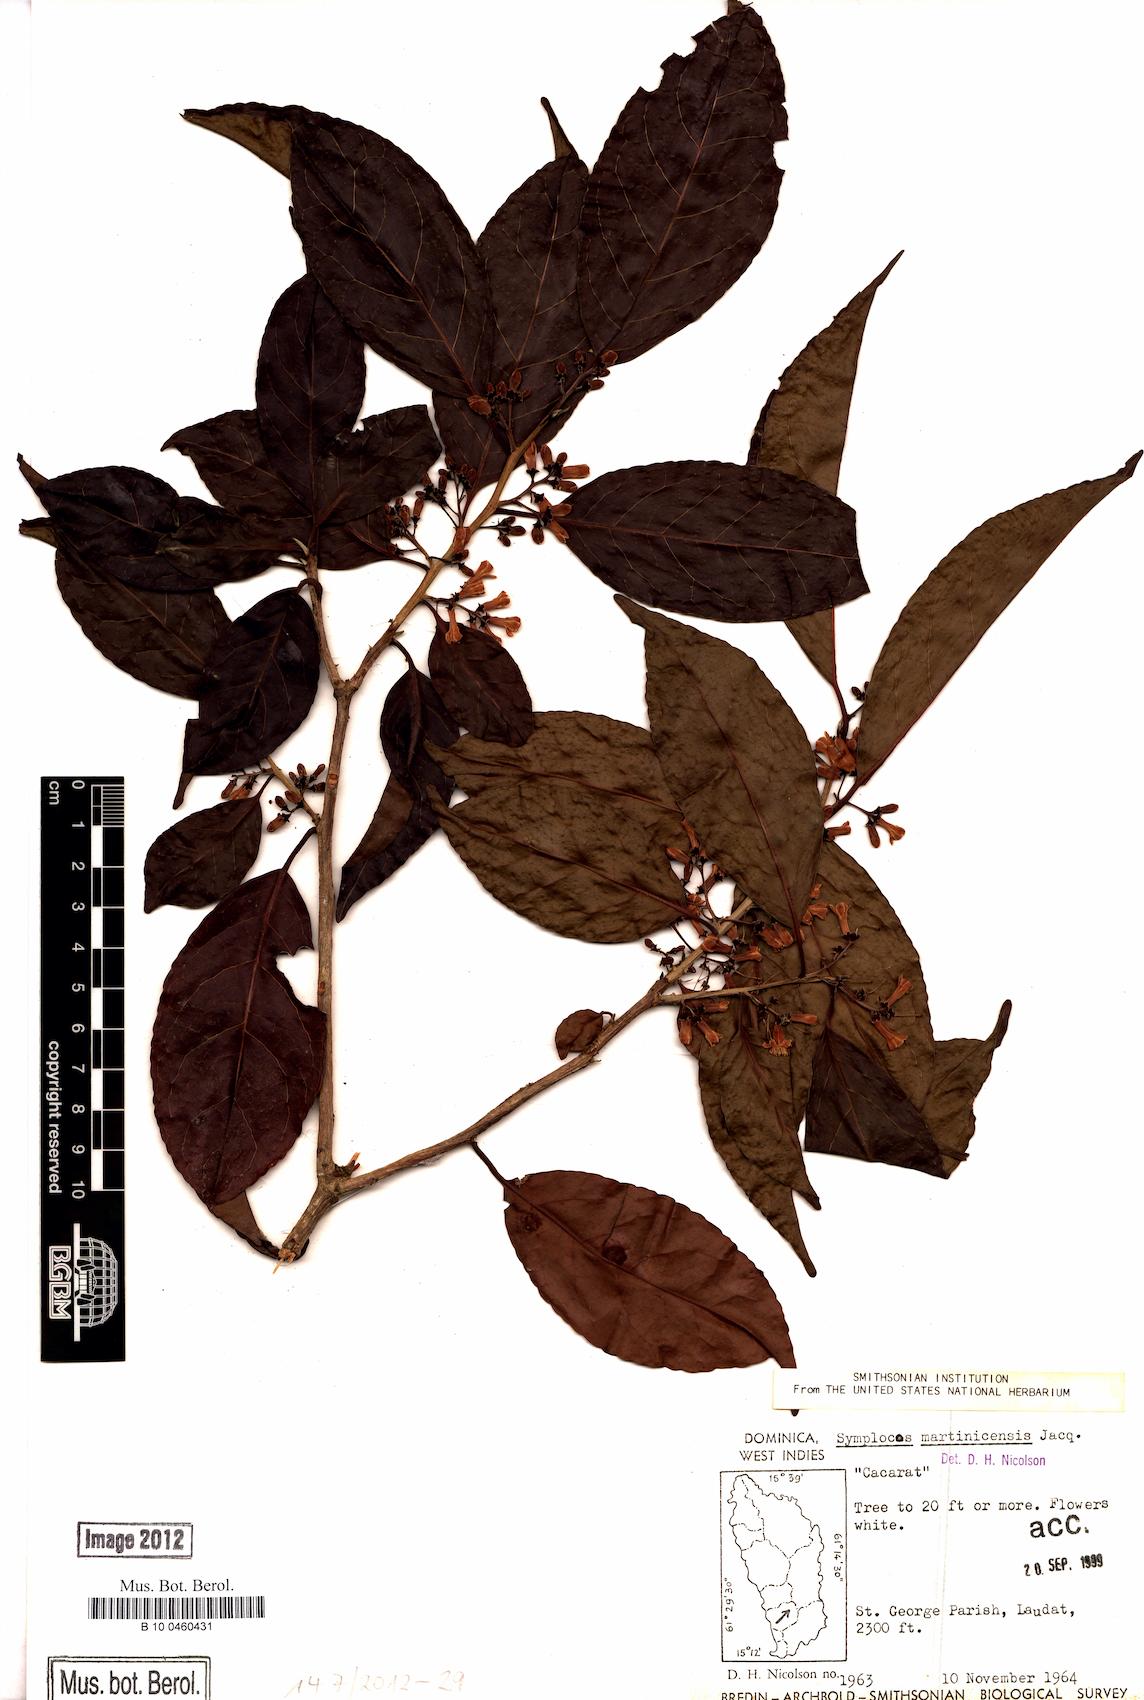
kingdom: Plantae
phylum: Tracheophyta
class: Magnoliopsida
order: Ericales
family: Symplocaceae
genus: Symplocos
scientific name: Symplocos martinicensis
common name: Blueberry
